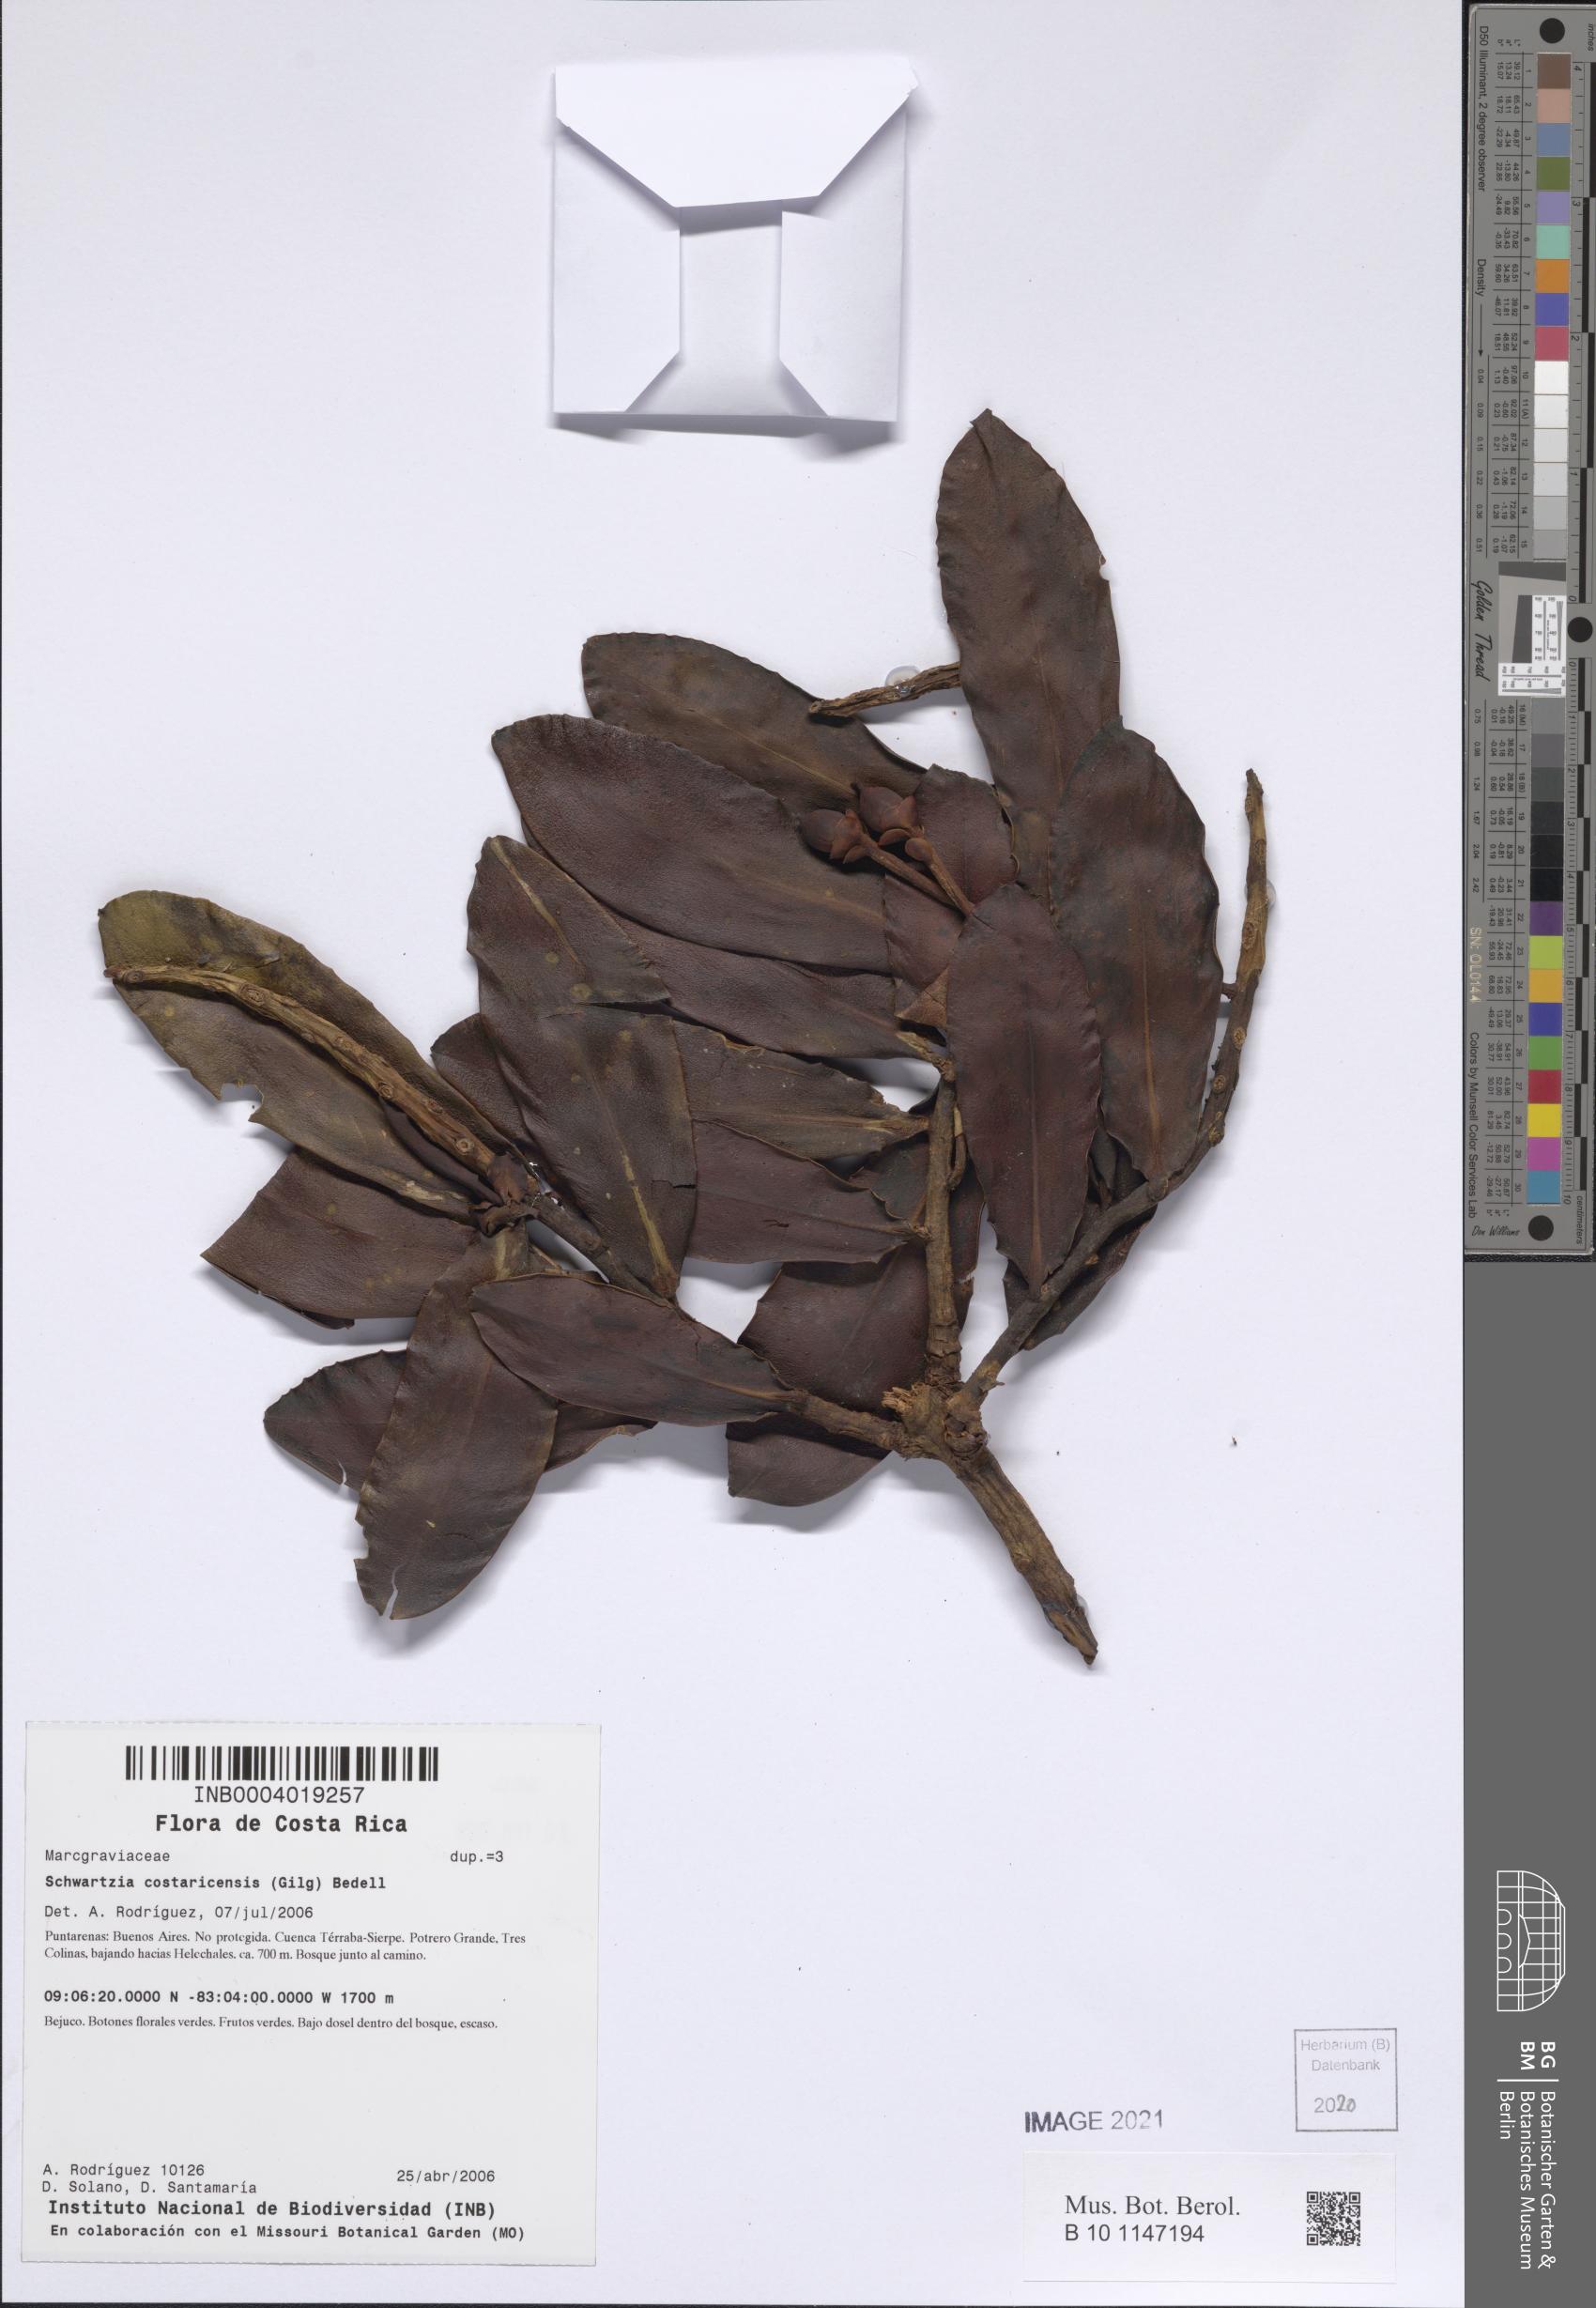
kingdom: Plantae
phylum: Tracheophyta
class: Magnoliopsida
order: Ericales
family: Marcgraviaceae
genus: Schwartzia
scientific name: Schwartzia costaricensis
